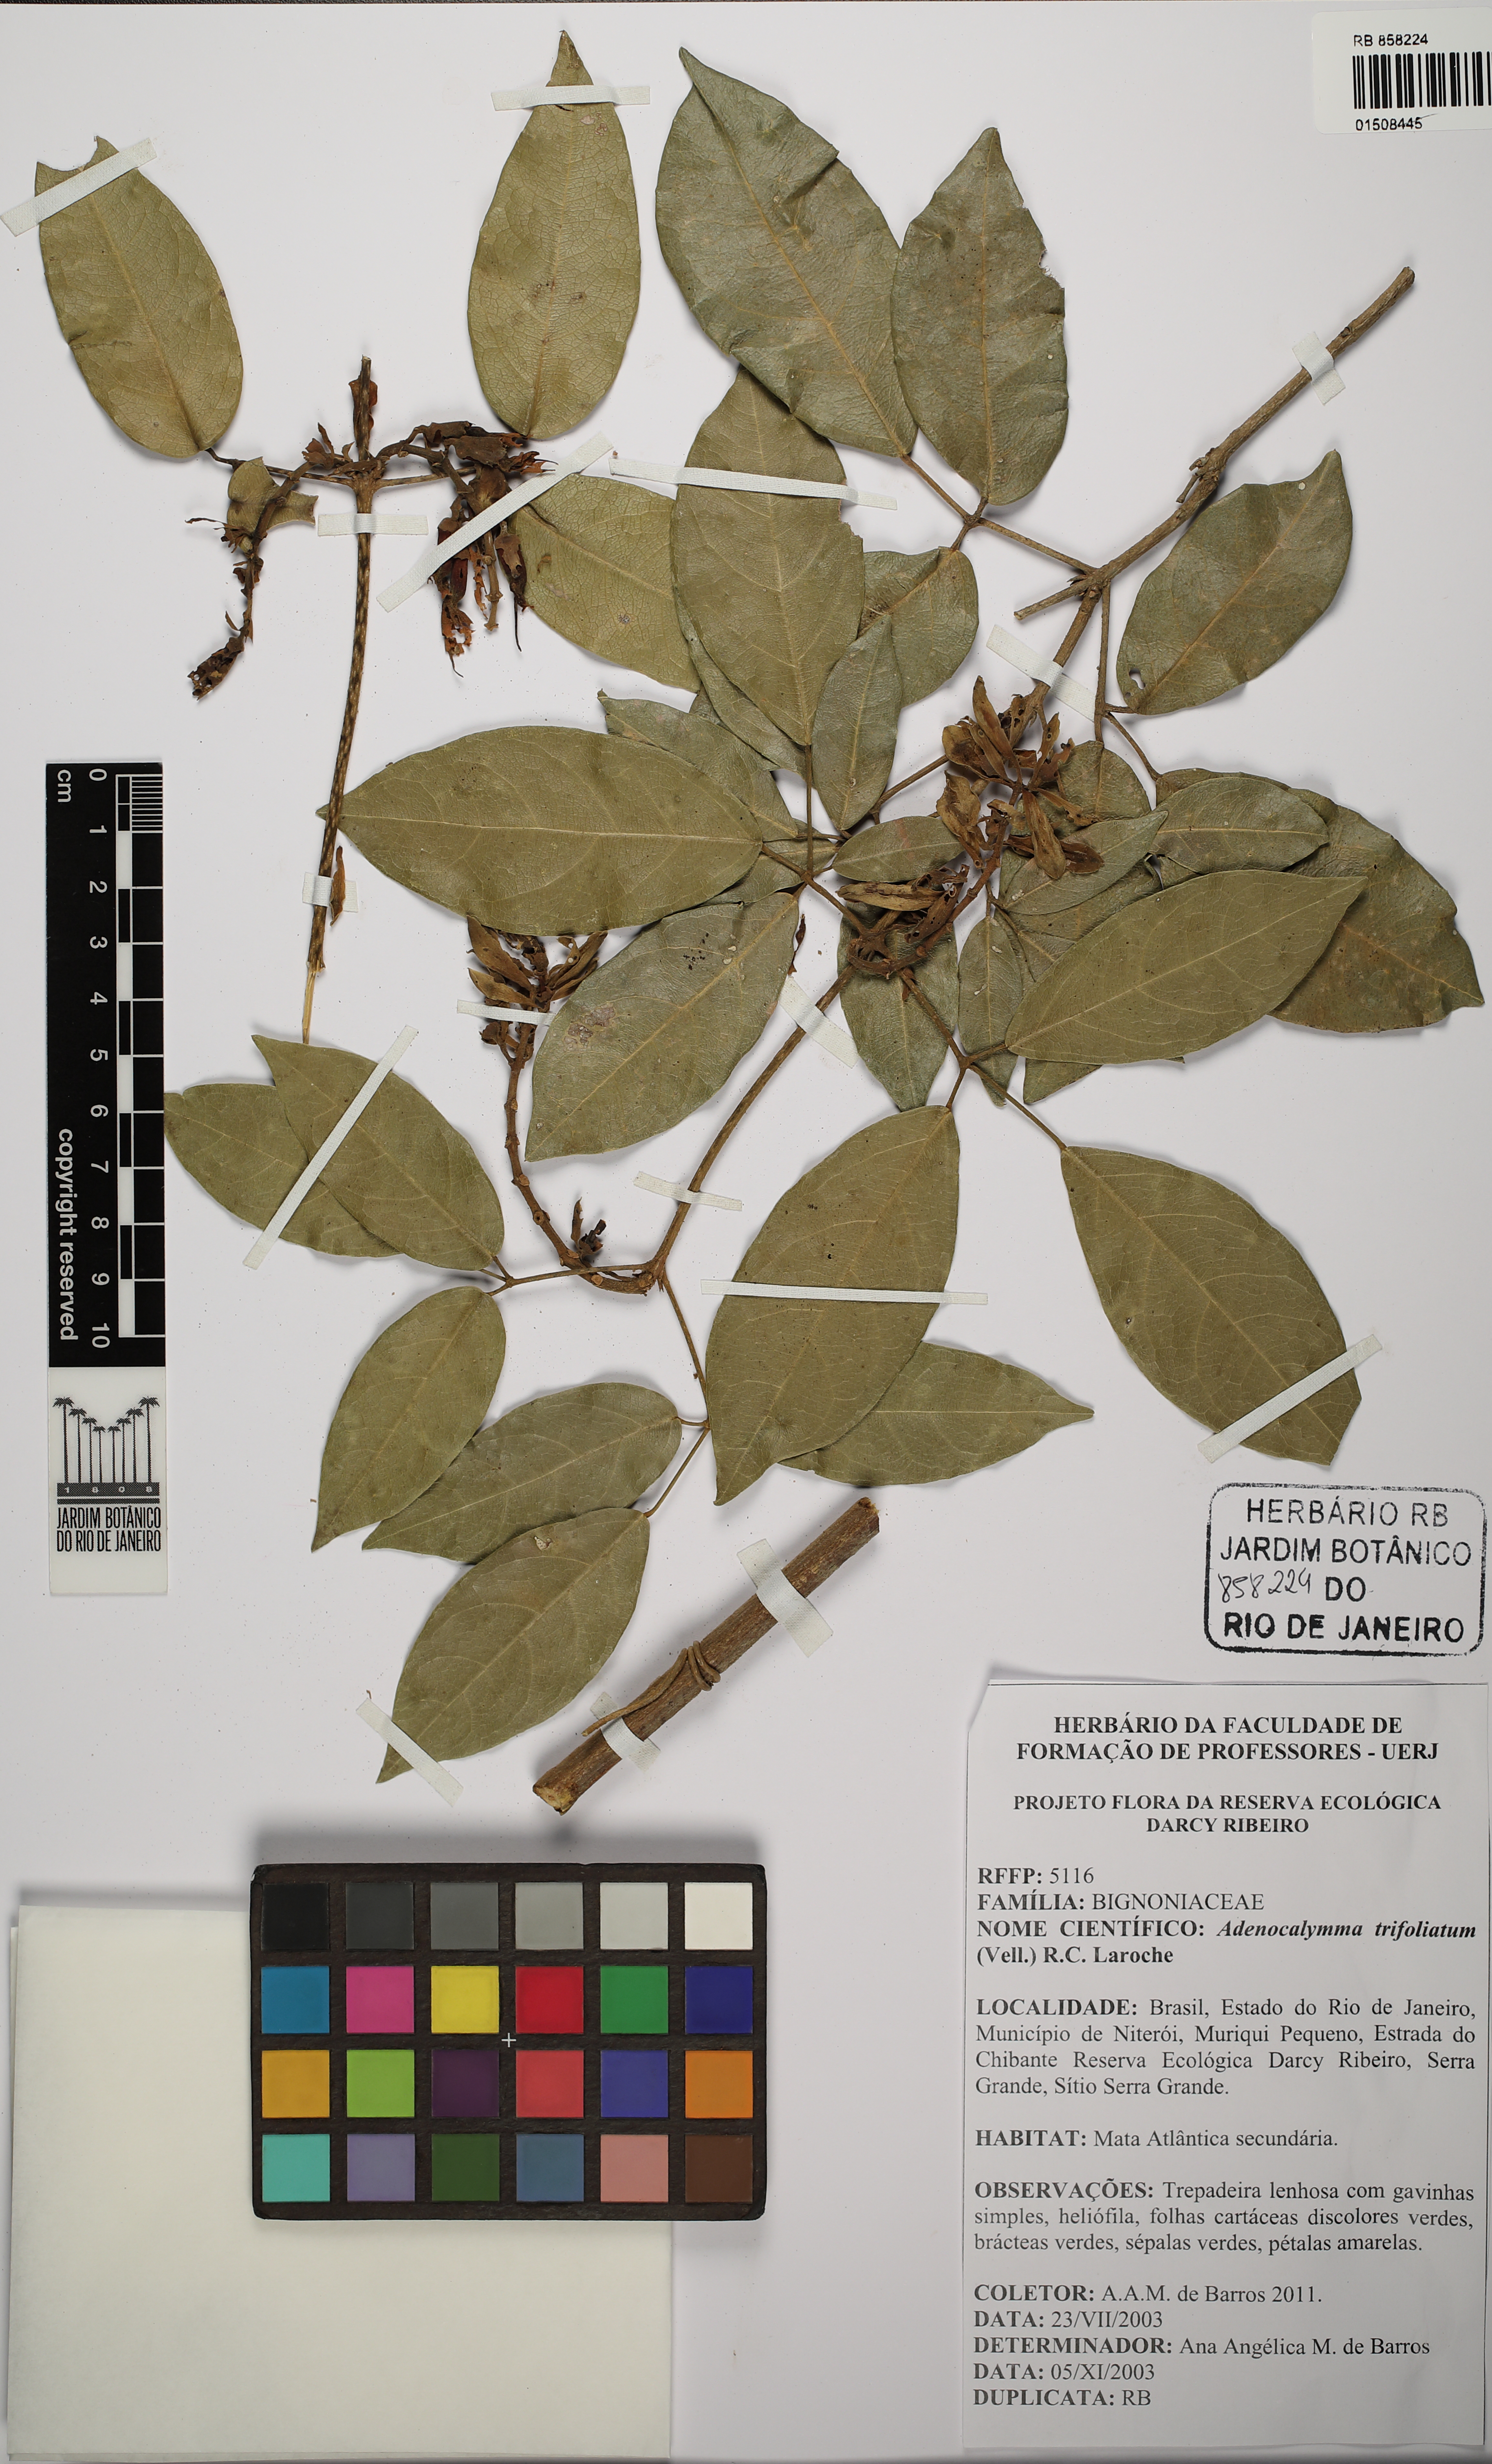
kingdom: Plantae
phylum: Tracheophyta
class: Magnoliopsida
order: Lamiales
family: Bignoniaceae
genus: Adenocalymma
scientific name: Adenocalymma trifoliatum
